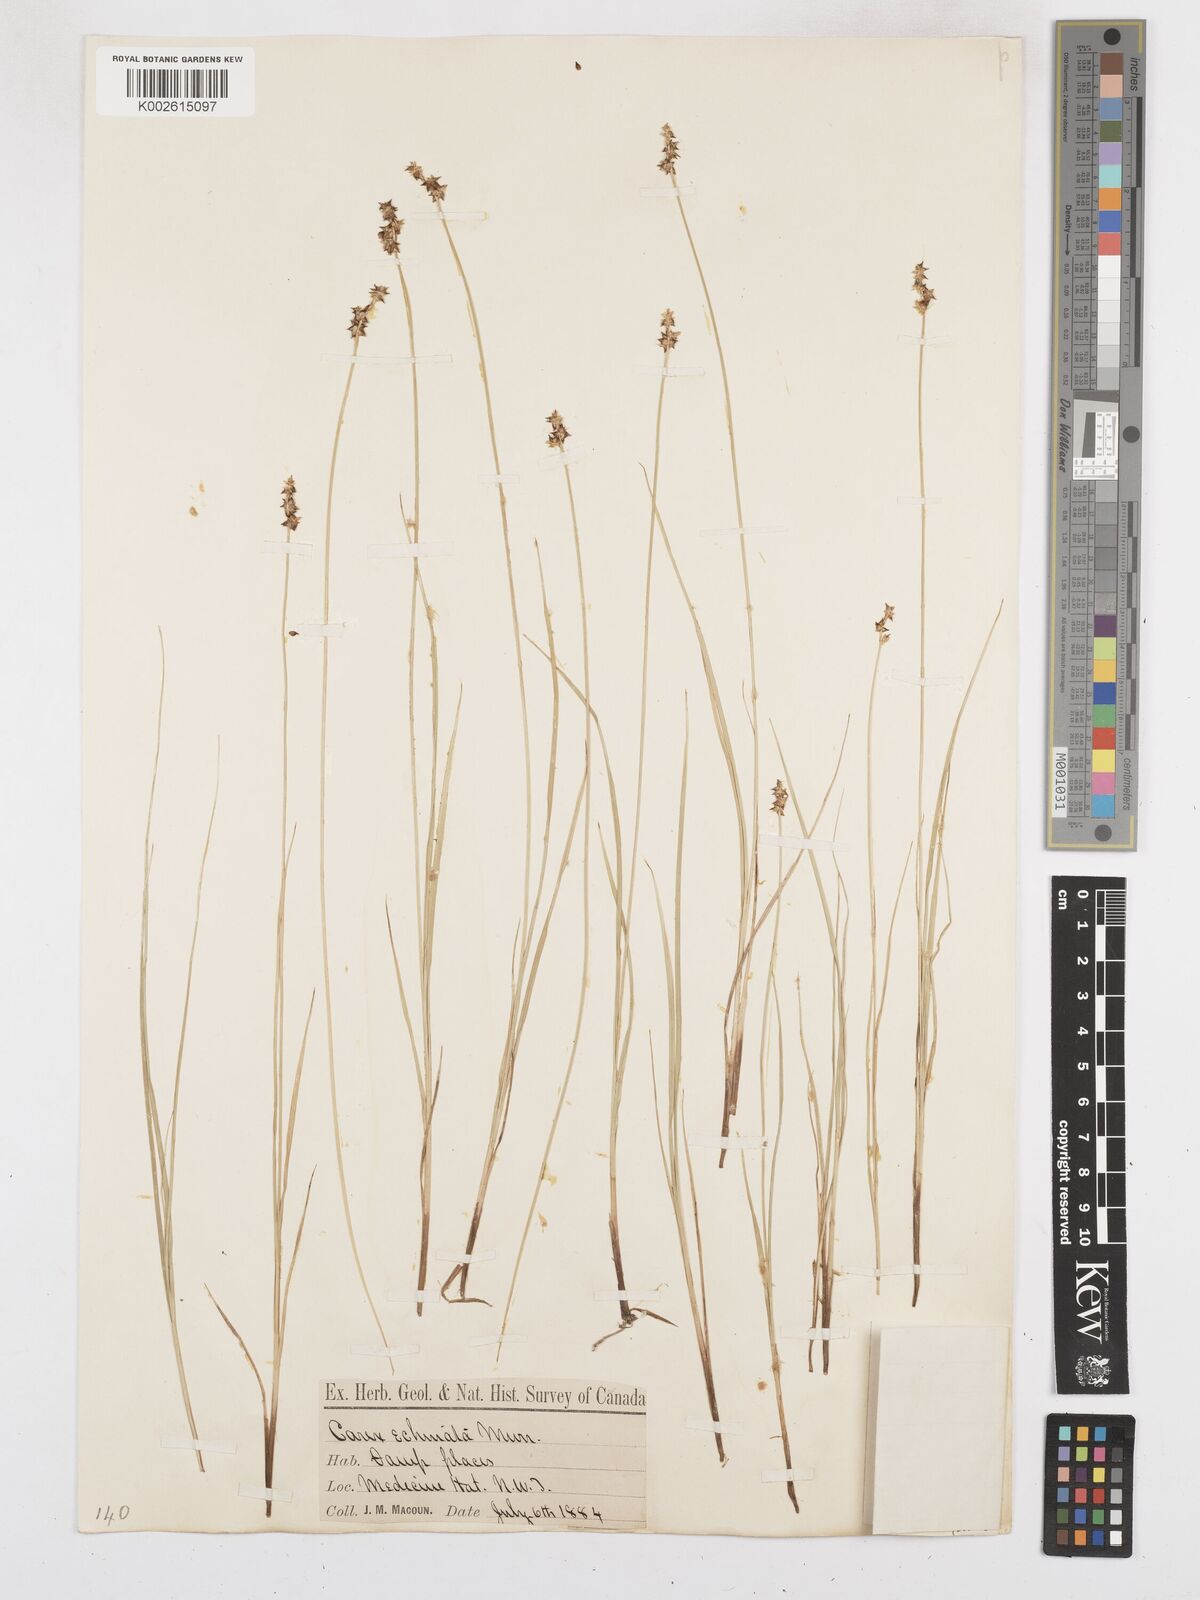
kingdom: Plantae
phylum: Tracheophyta
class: Liliopsida
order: Poales
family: Cyperaceae
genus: Carex
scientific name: Carex echinata
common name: Star sedge
